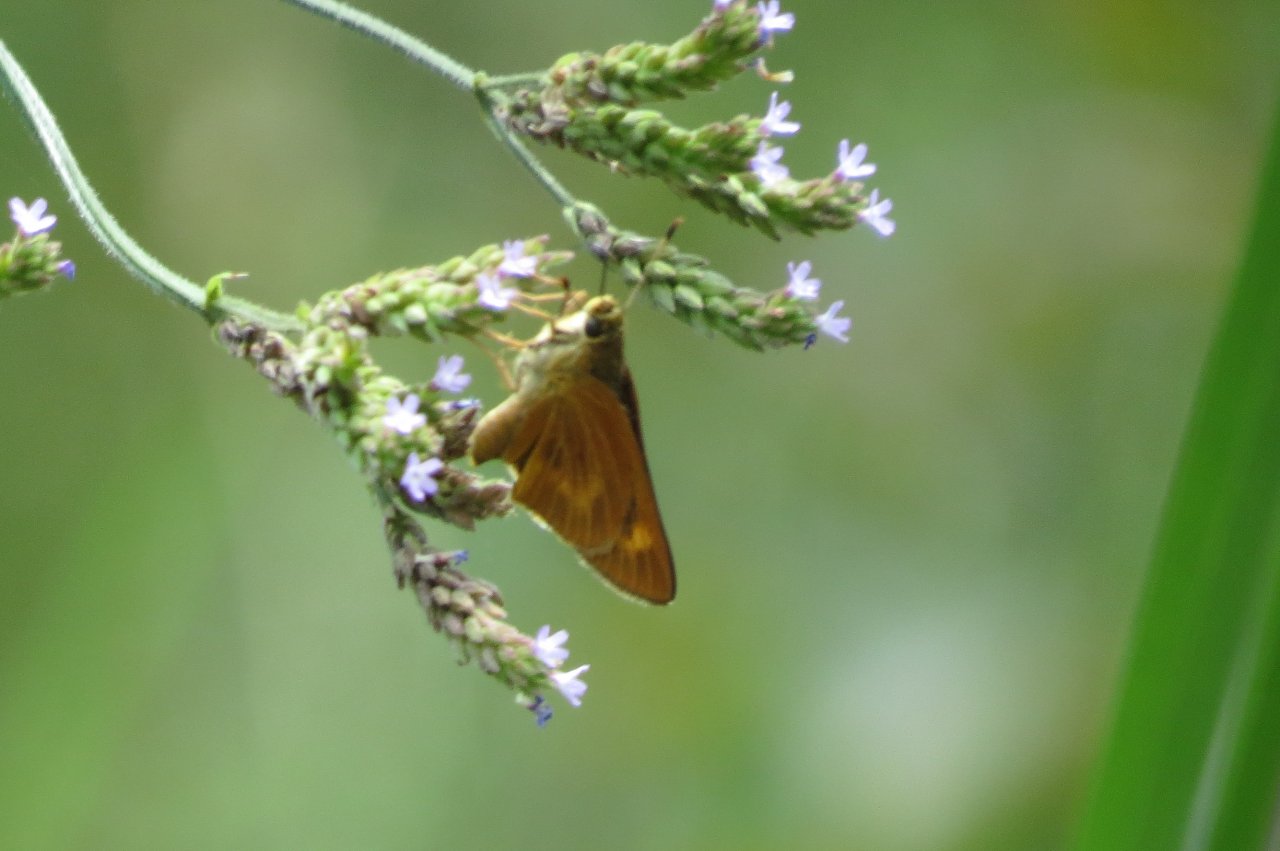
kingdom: Animalia
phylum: Arthropoda
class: Insecta
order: Lepidoptera
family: Hesperiidae
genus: Problema
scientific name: Problema byssus
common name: Byssus Skipper
